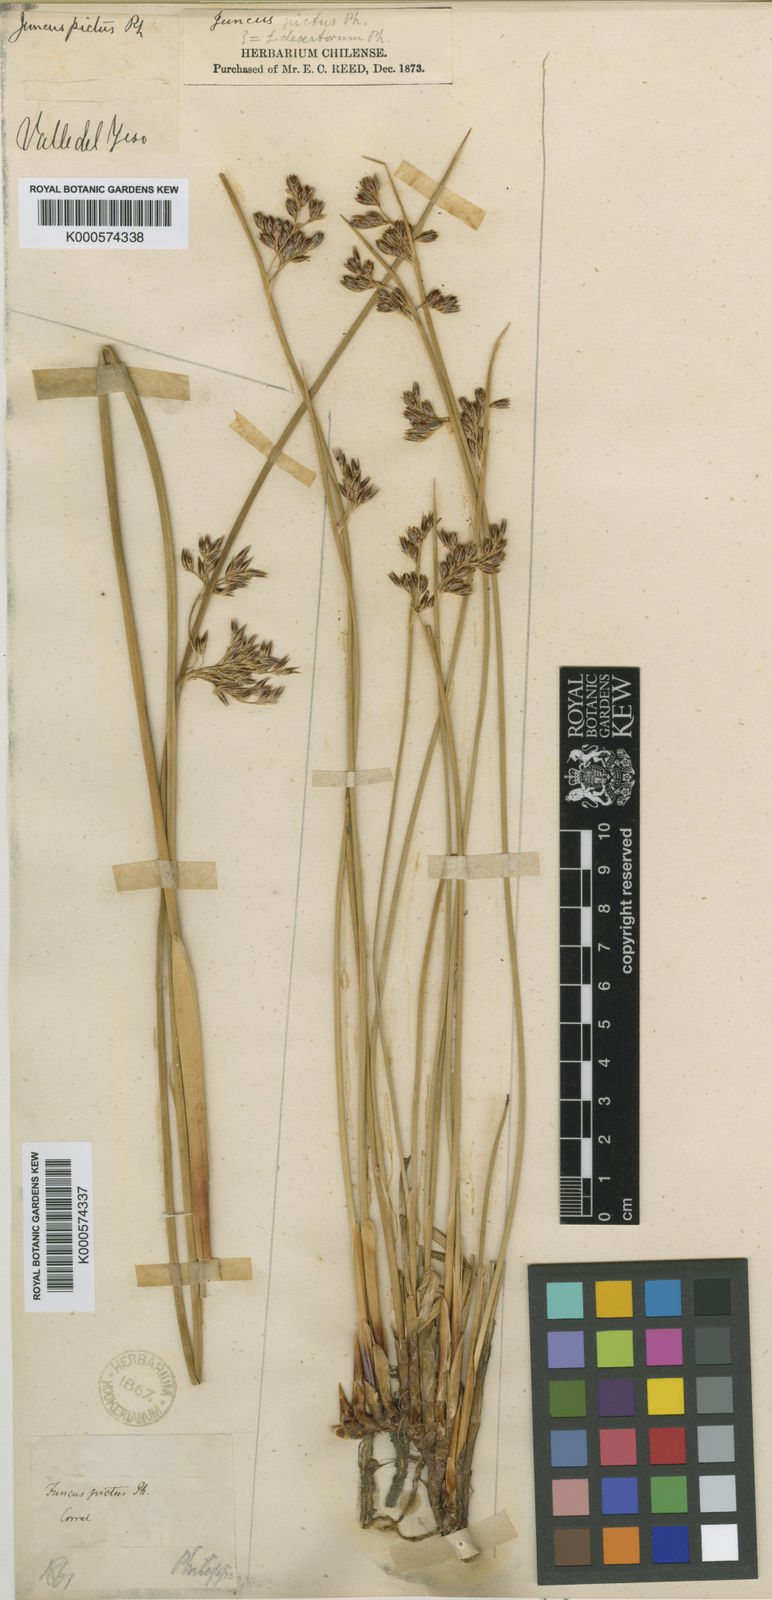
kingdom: Plantae
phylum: Tracheophyta
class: Liliopsida
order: Poales
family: Juncaceae
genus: Juncus
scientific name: Juncus lesueurii
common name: Lesueur's rush
